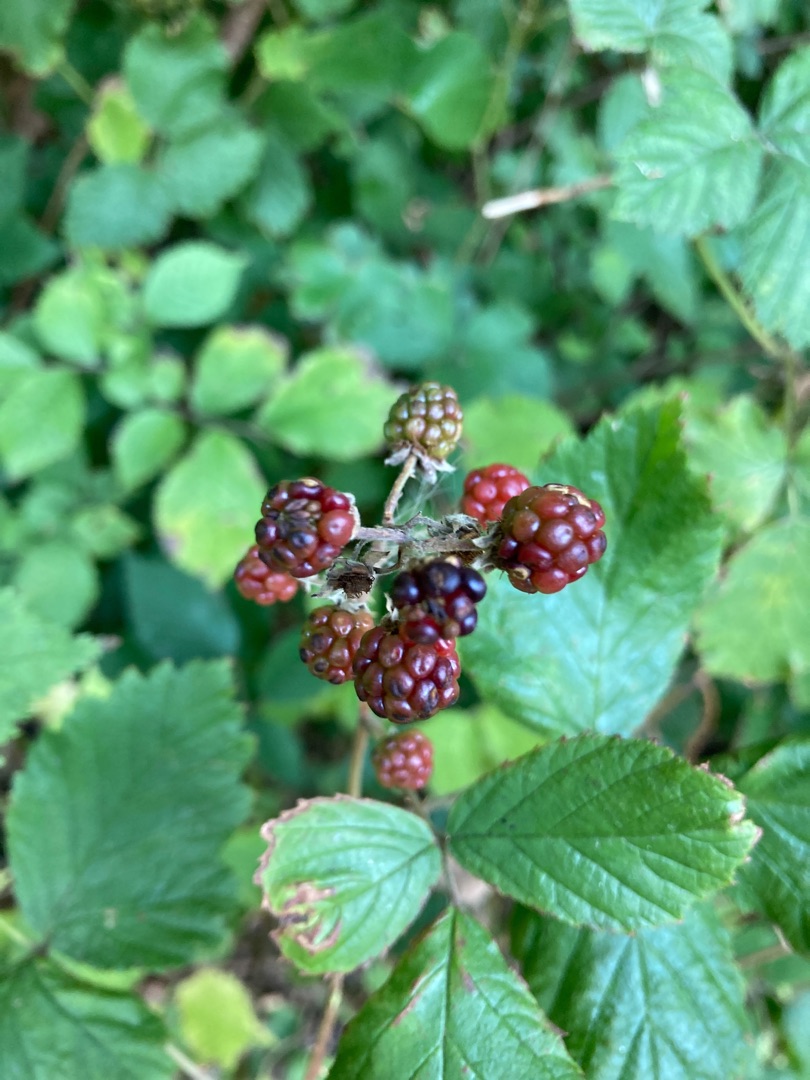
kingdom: Plantae
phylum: Tracheophyta
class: Magnoliopsida
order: Rosales
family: Rosaceae
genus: Rubus
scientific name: Rubus
